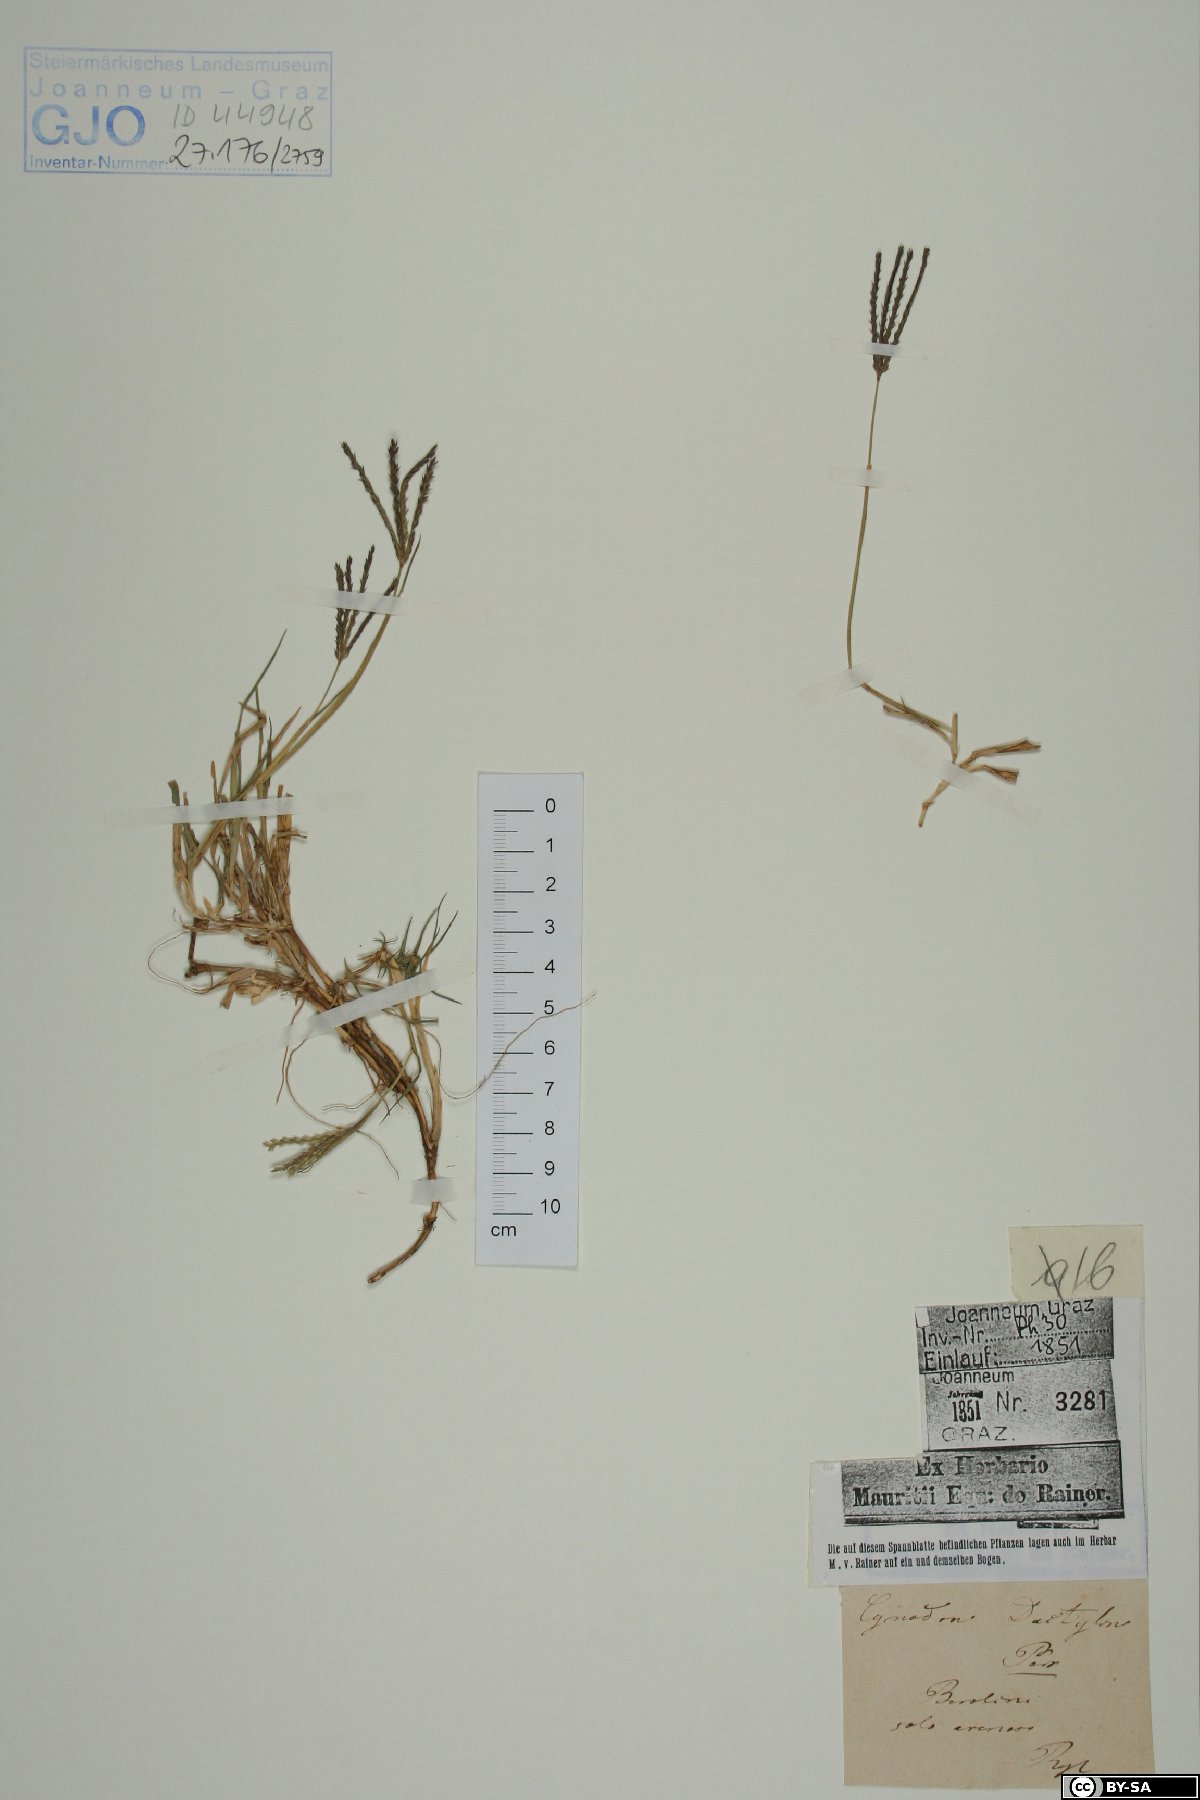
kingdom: Plantae
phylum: Tracheophyta
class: Liliopsida
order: Poales
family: Poaceae
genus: Cynodon
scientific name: Cynodon dactylon
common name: Bermuda grass
